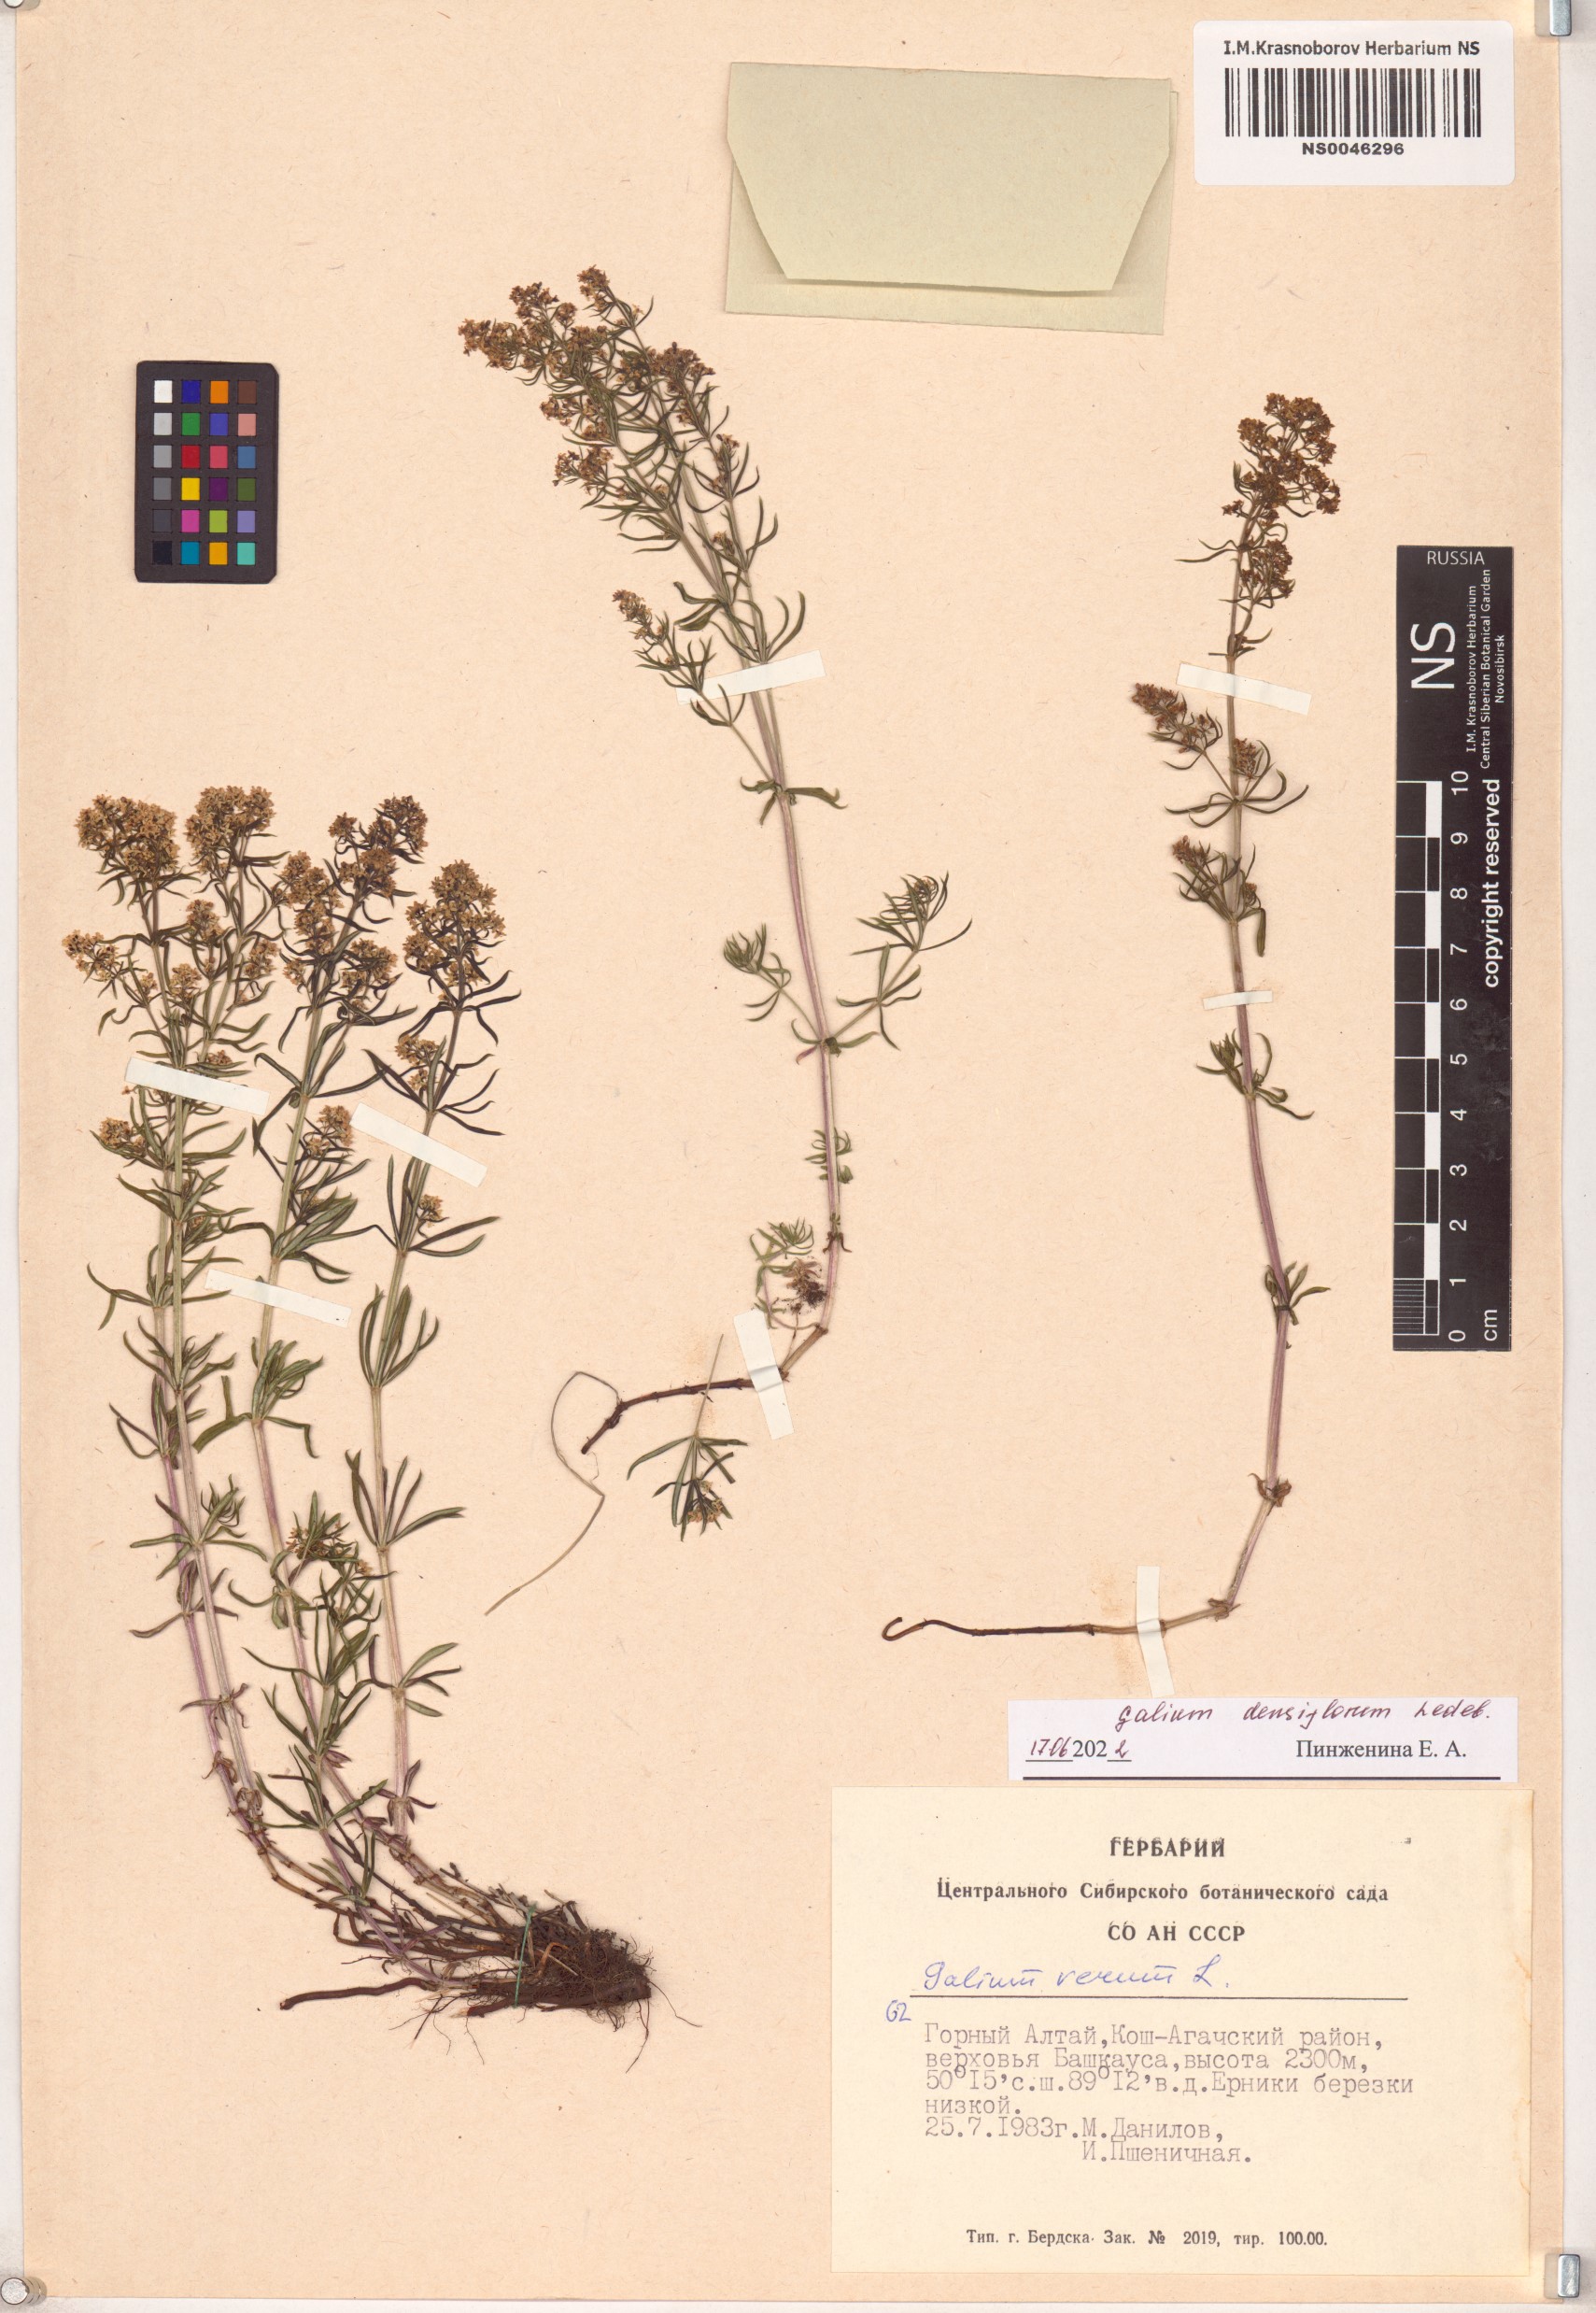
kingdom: Plantae
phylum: Tracheophyta
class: Magnoliopsida
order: Gentianales
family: Rubiaceae
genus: Galium
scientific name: Galium densiflorum
